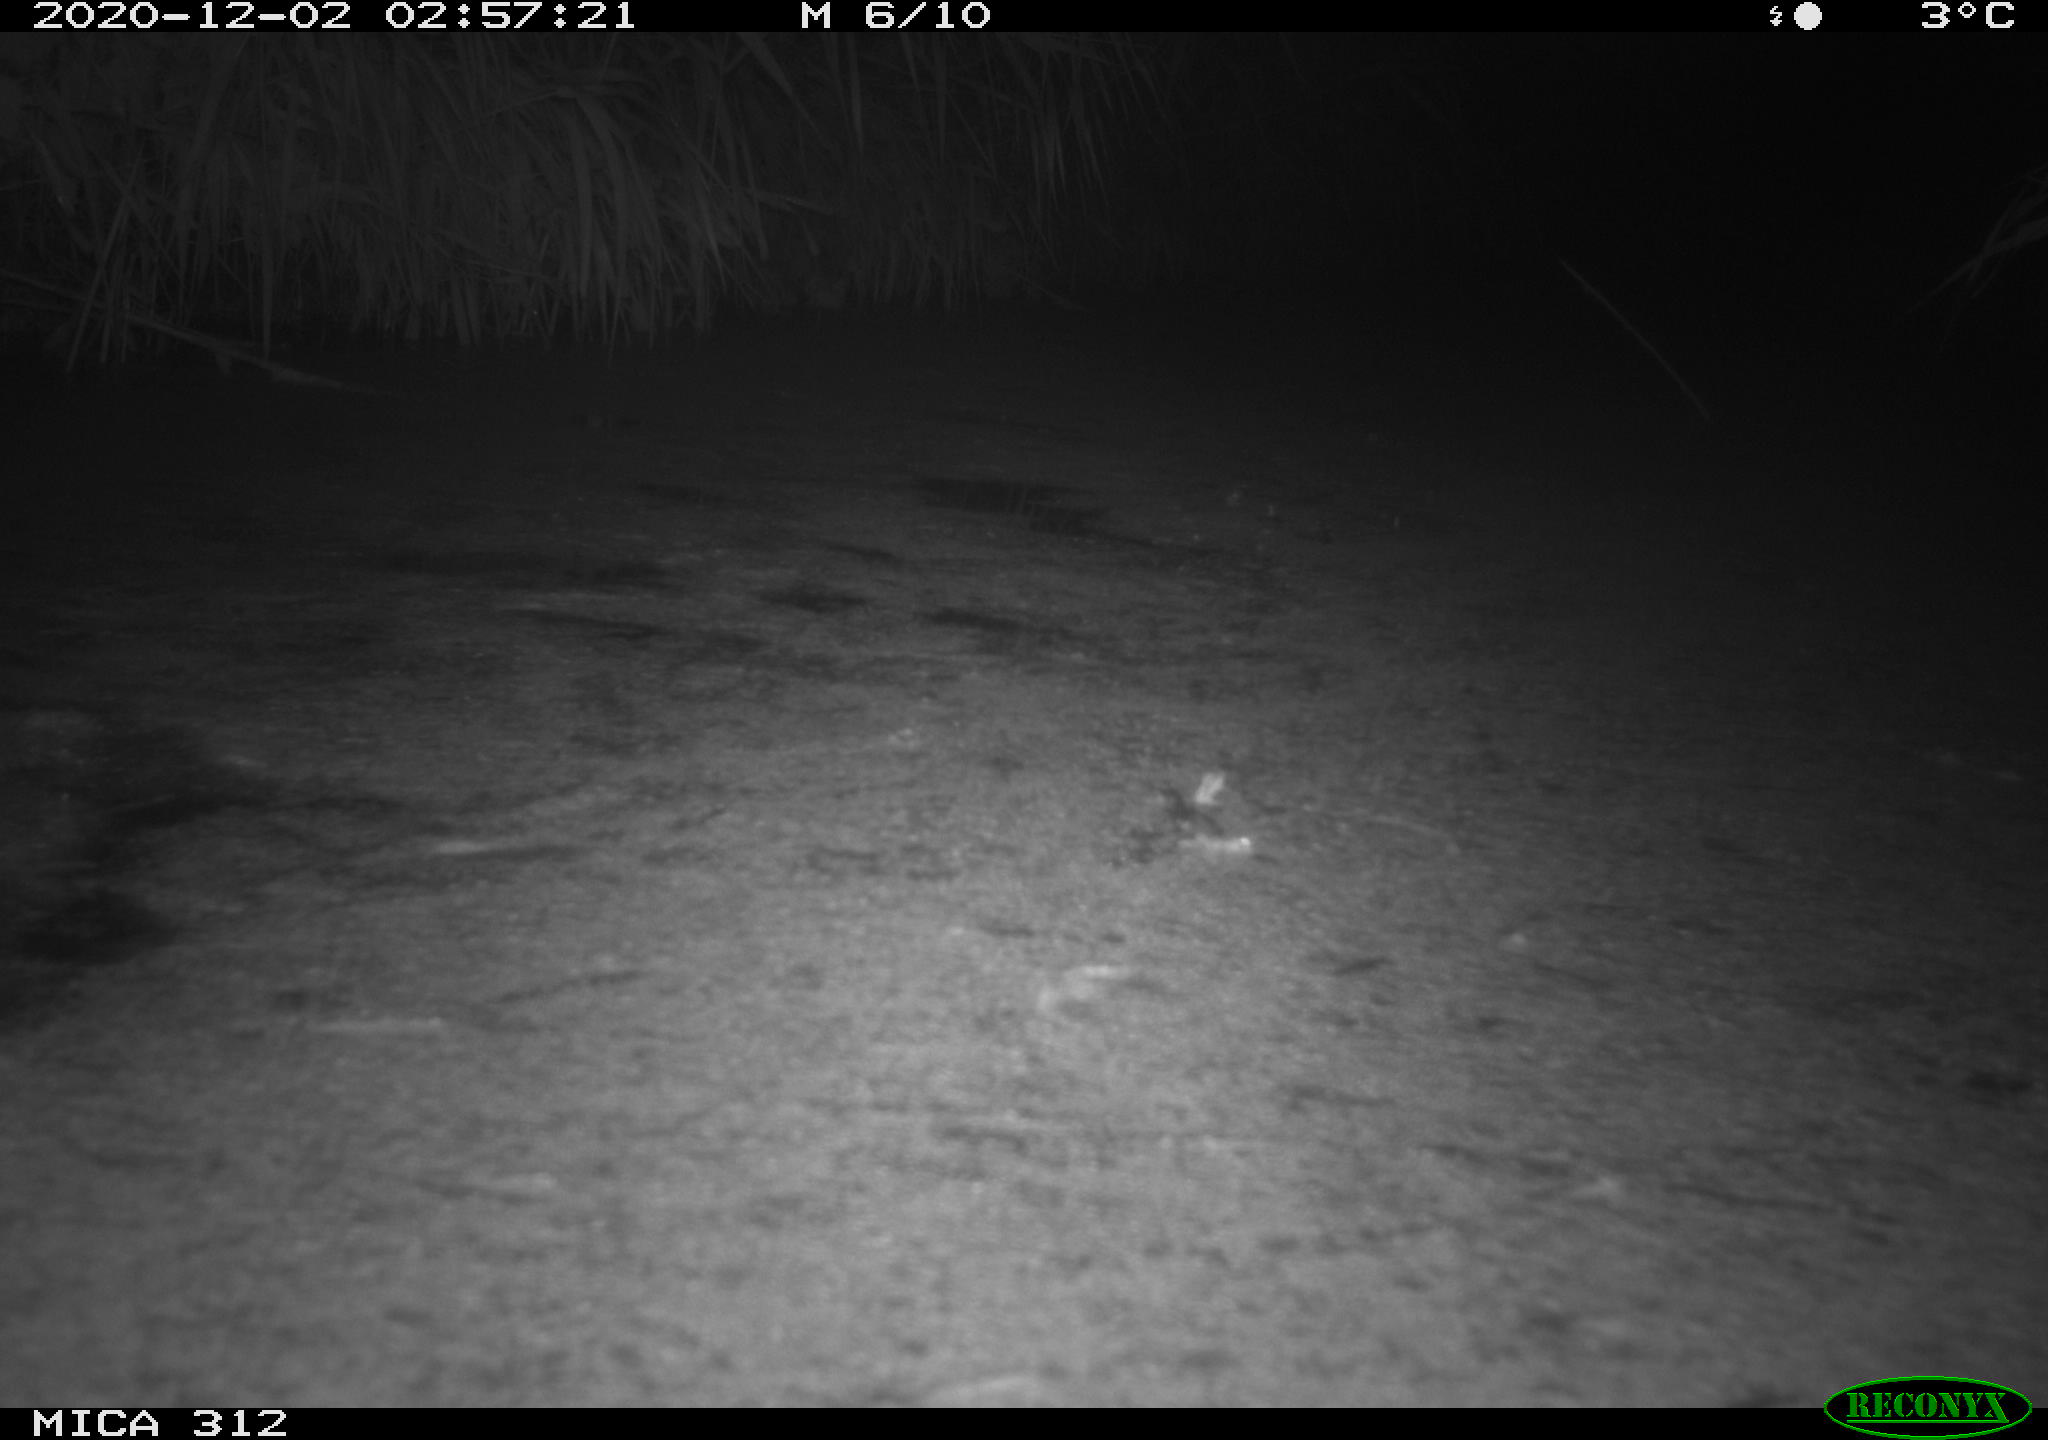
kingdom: Animalia
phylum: Chordata
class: Aves
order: Gruiformes
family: Rallidae
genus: Gallinula
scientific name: Gallinula chloropus
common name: Common moorhen
